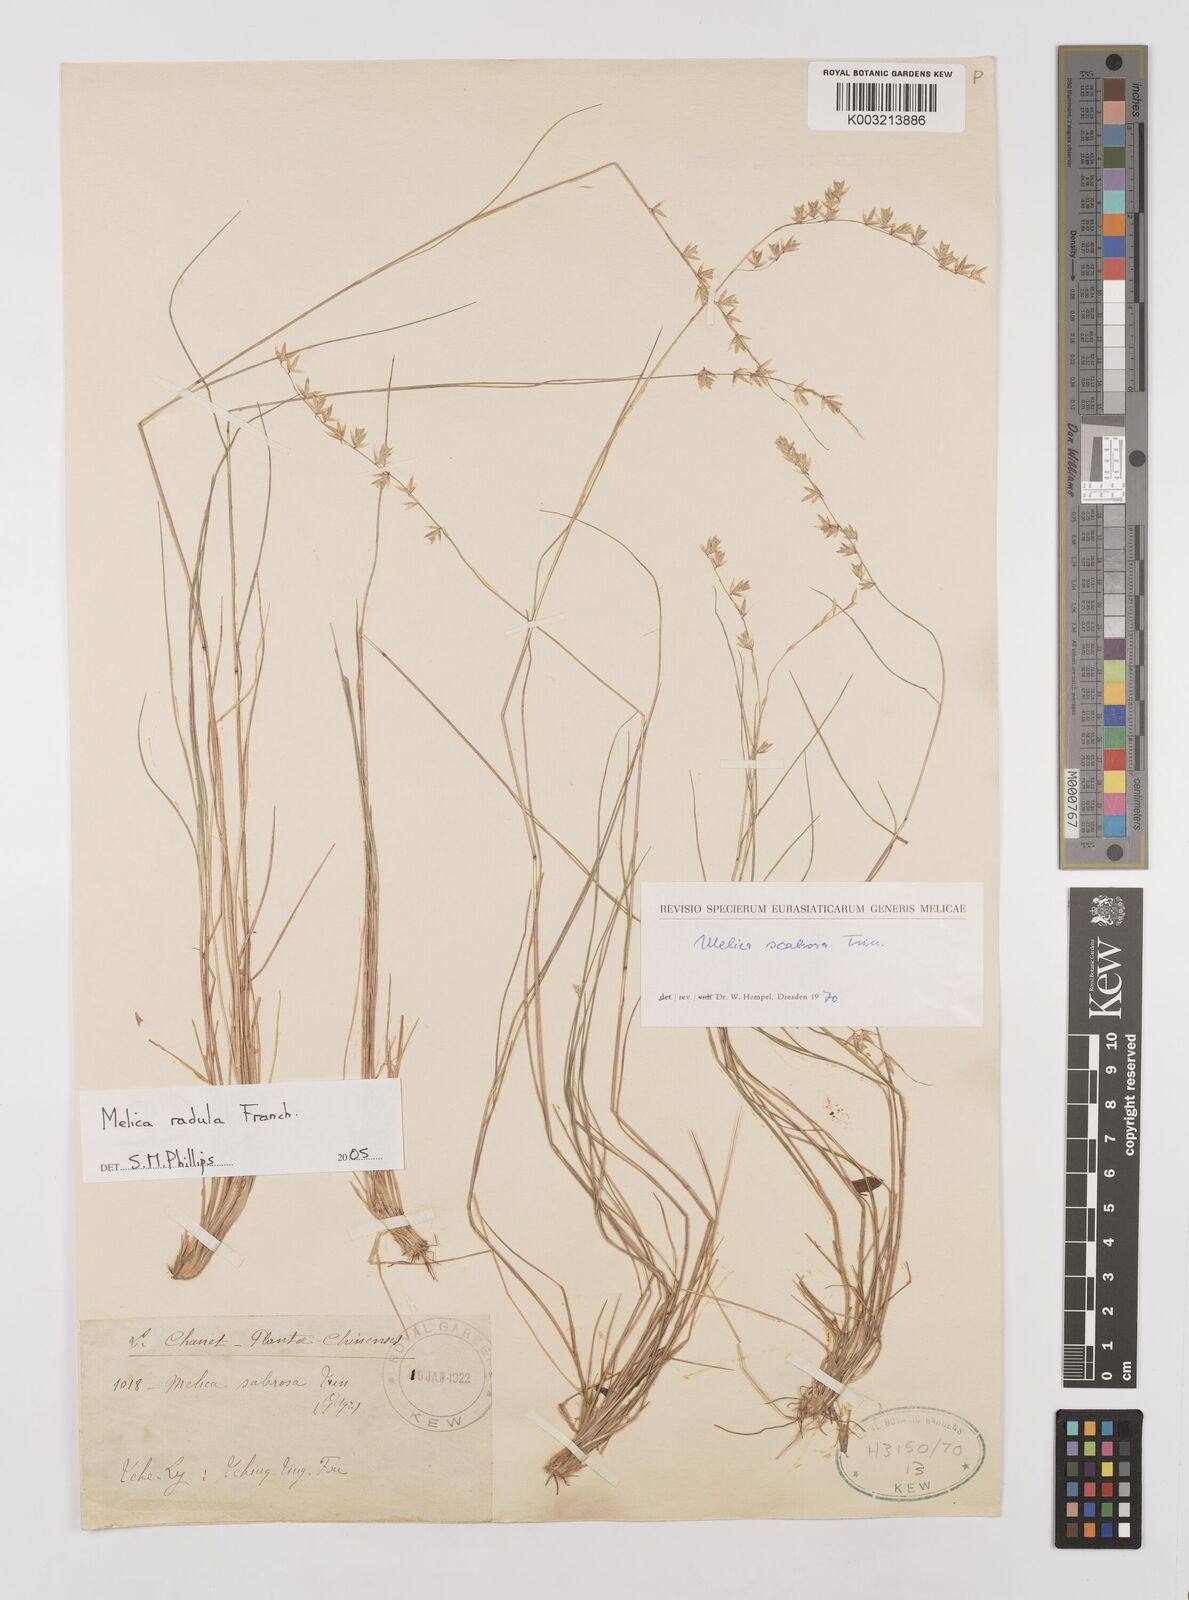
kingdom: Plantae
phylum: Tracheophyta
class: Liliopsida
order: Poales
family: Poaceae
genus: Melica
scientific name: Melica radula
